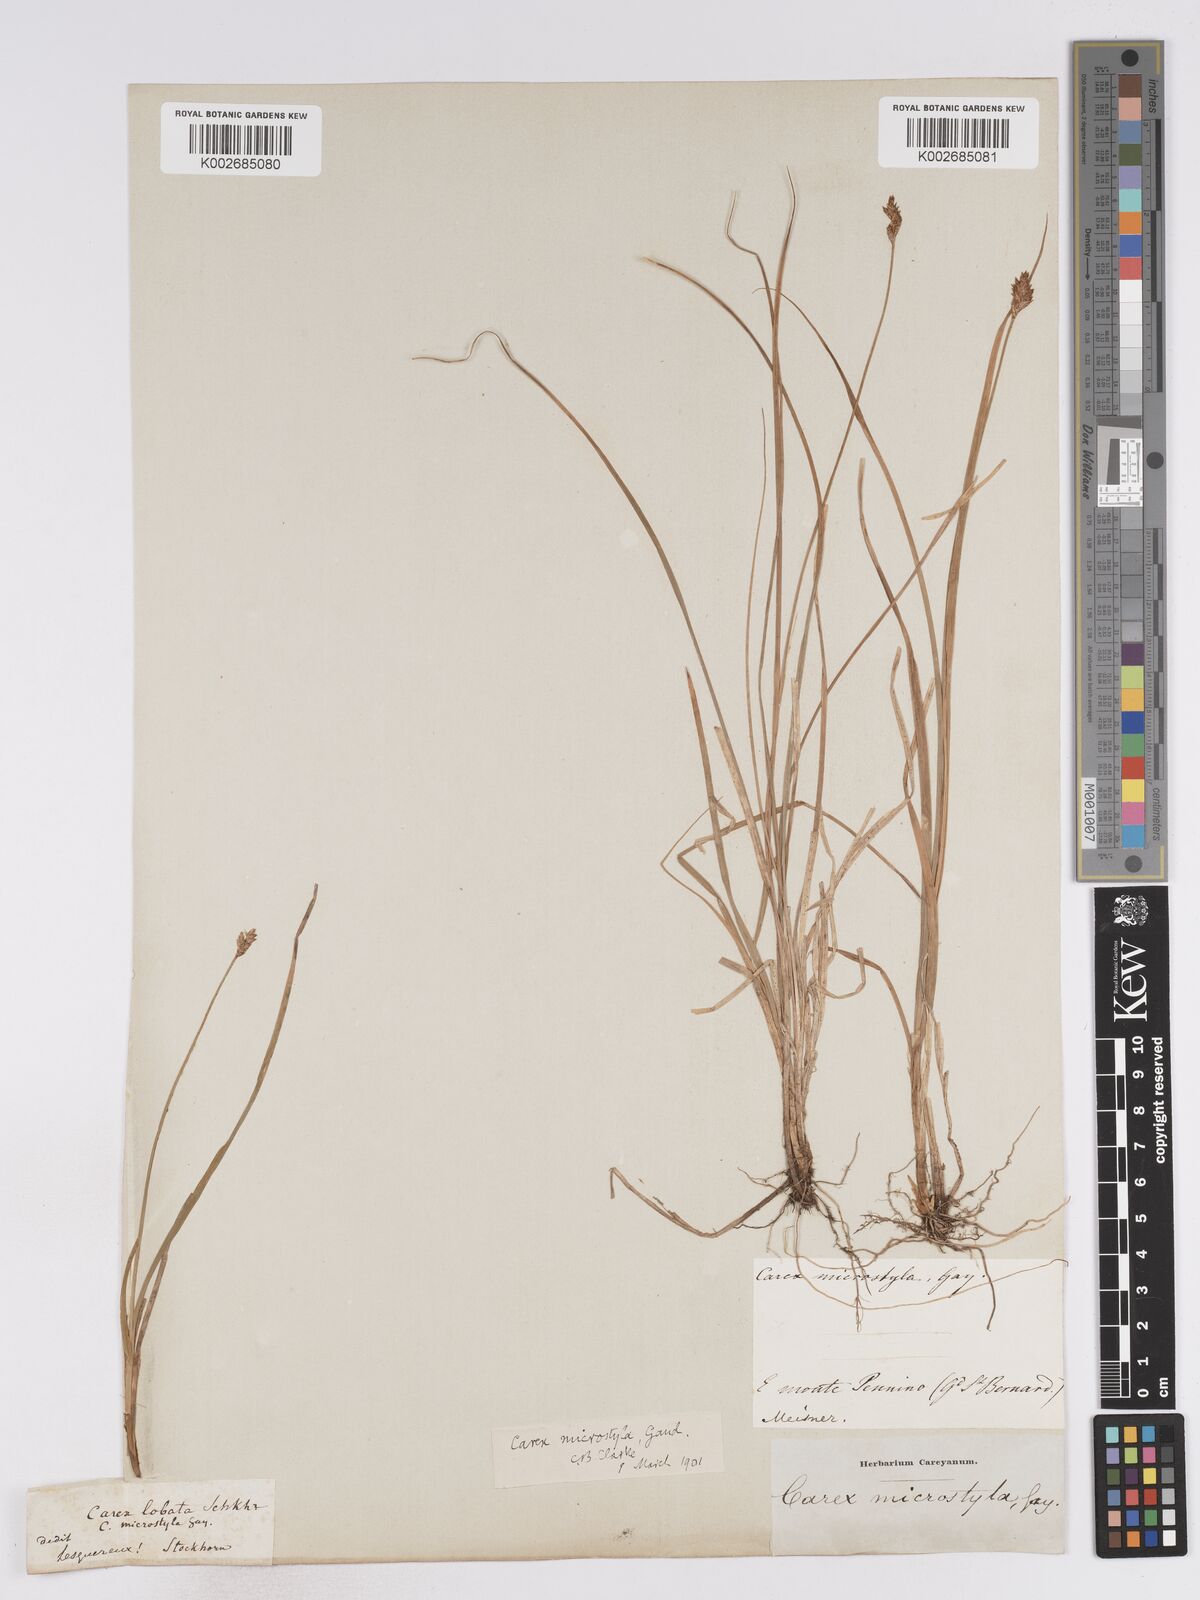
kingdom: Plantae
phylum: Tracheophyta
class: Liliopsida
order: Poales
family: Cyperaceae
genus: Carex
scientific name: Carex brunnescens
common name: Brown sedge
